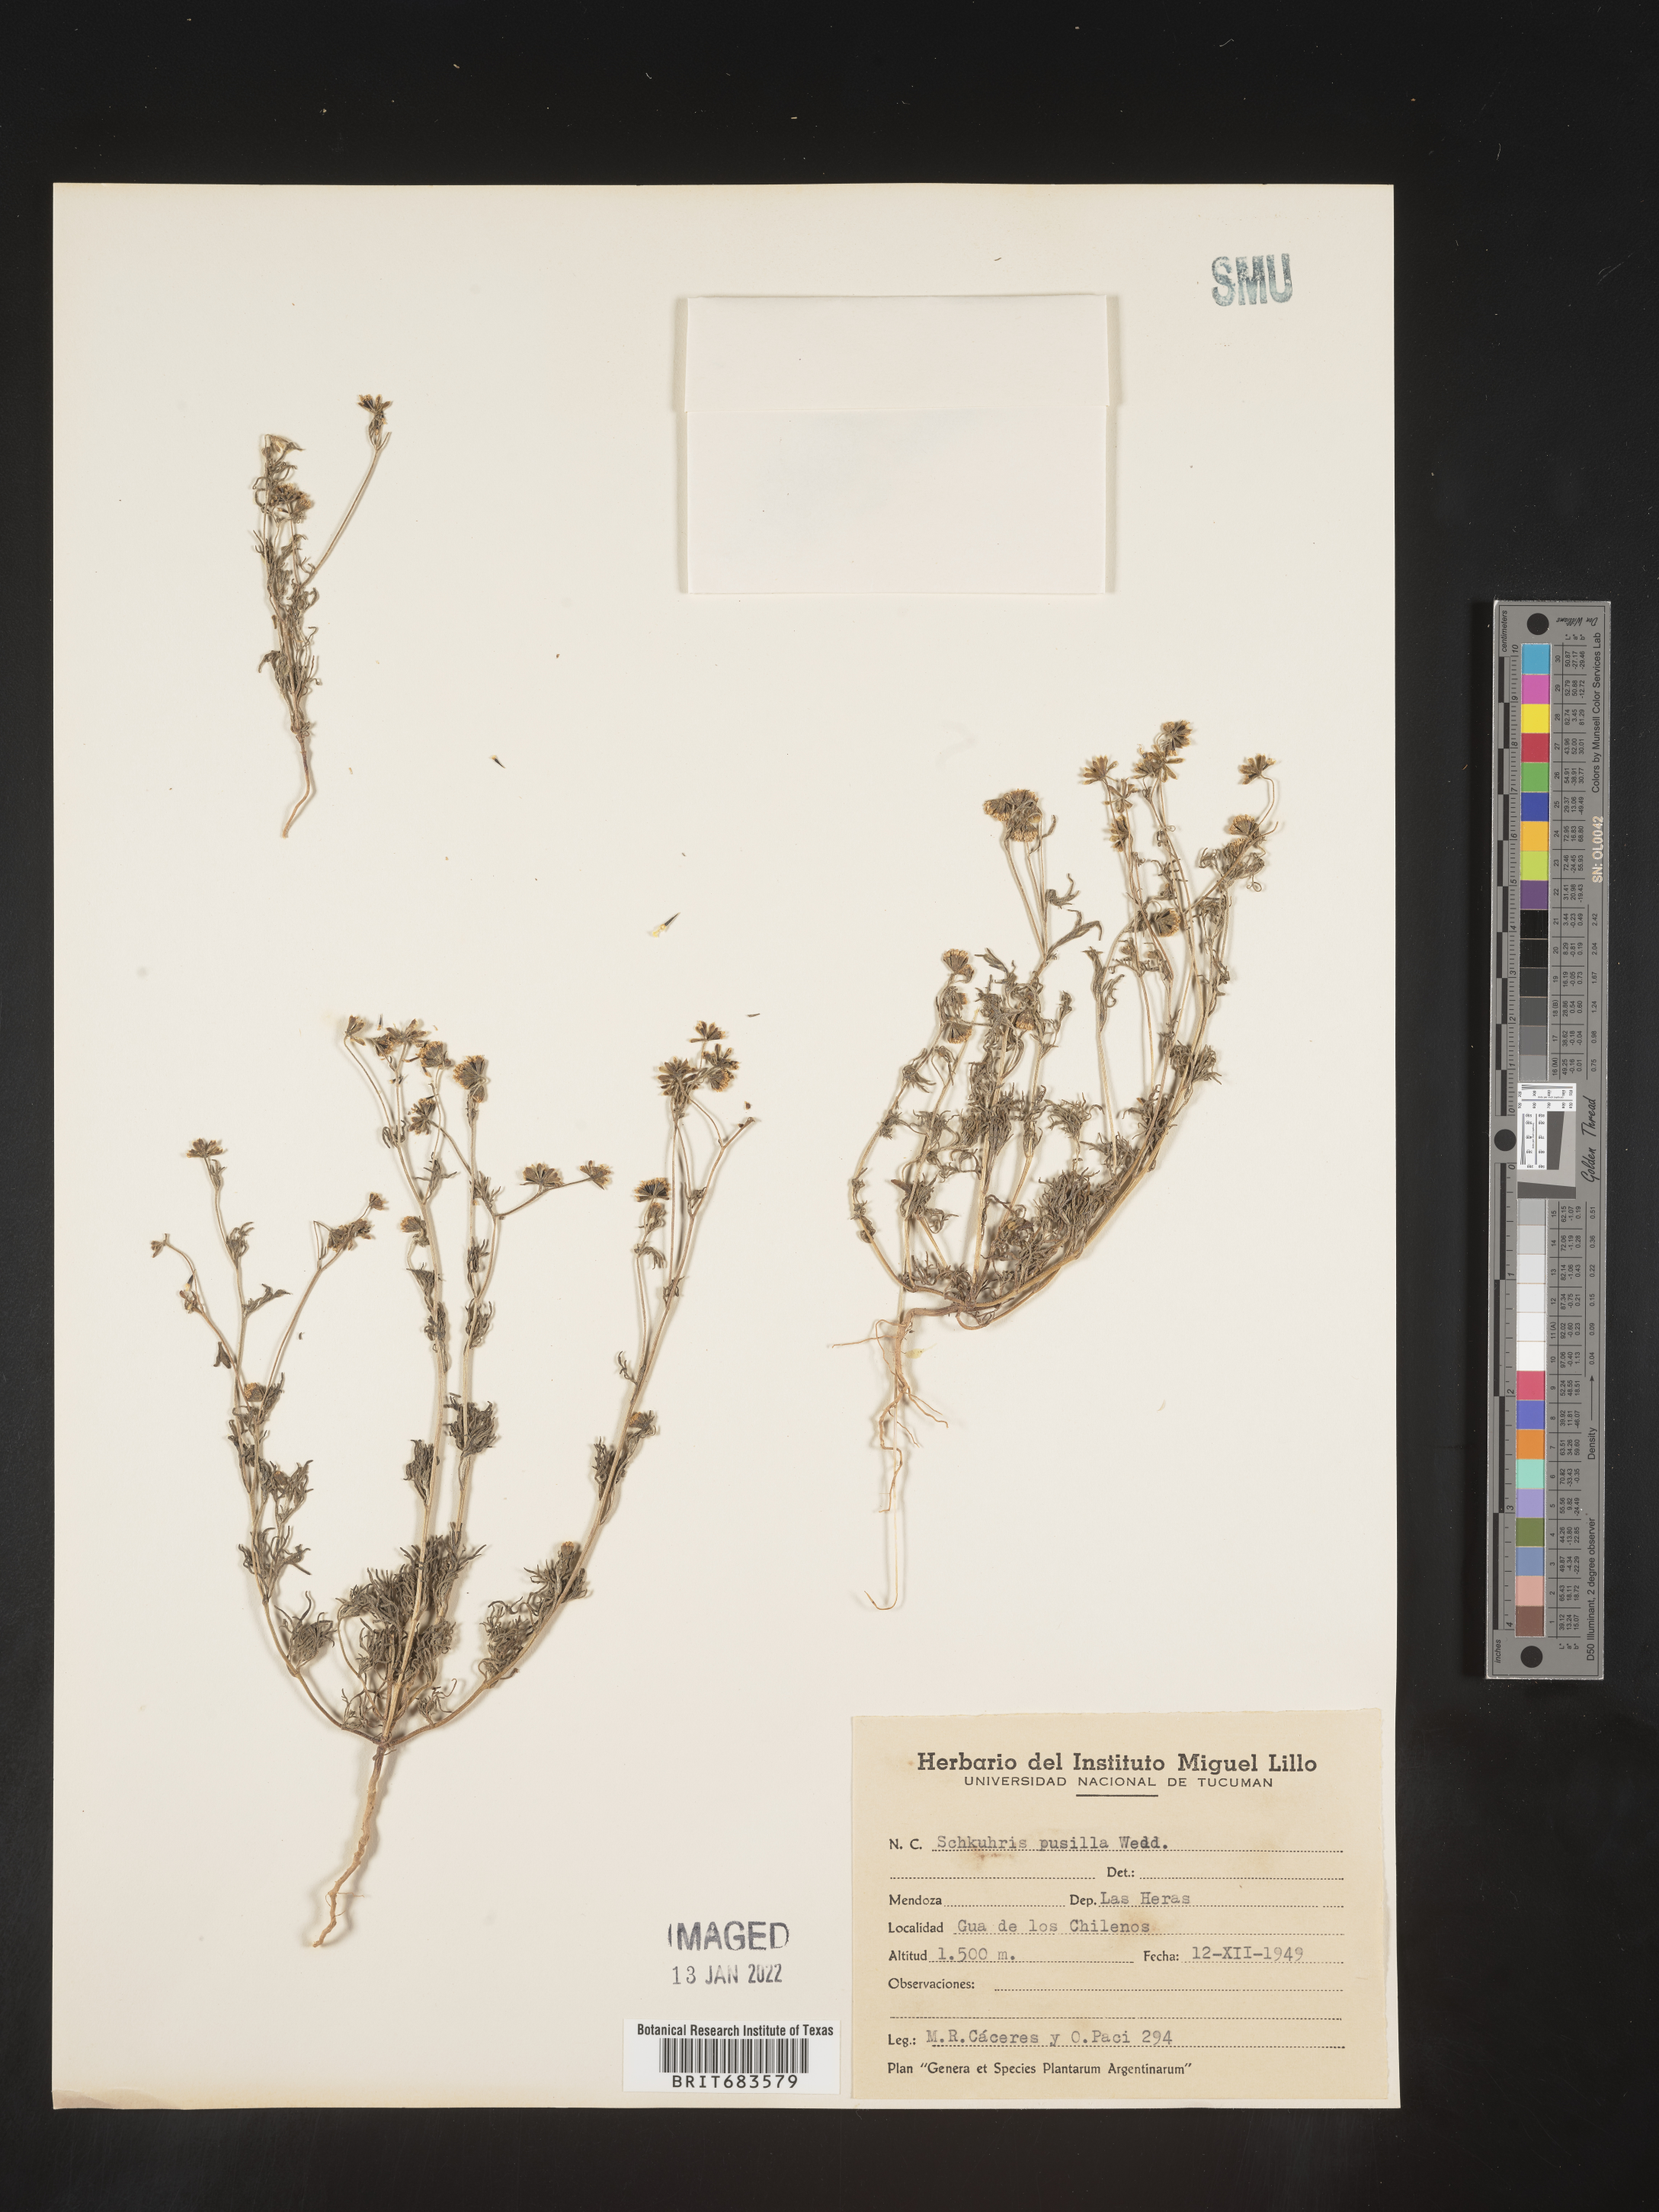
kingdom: Plantae
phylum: Tracheophyta
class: Magnoliopsida
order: Asterales
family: Asteraceae
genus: Bahia
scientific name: Bahia
